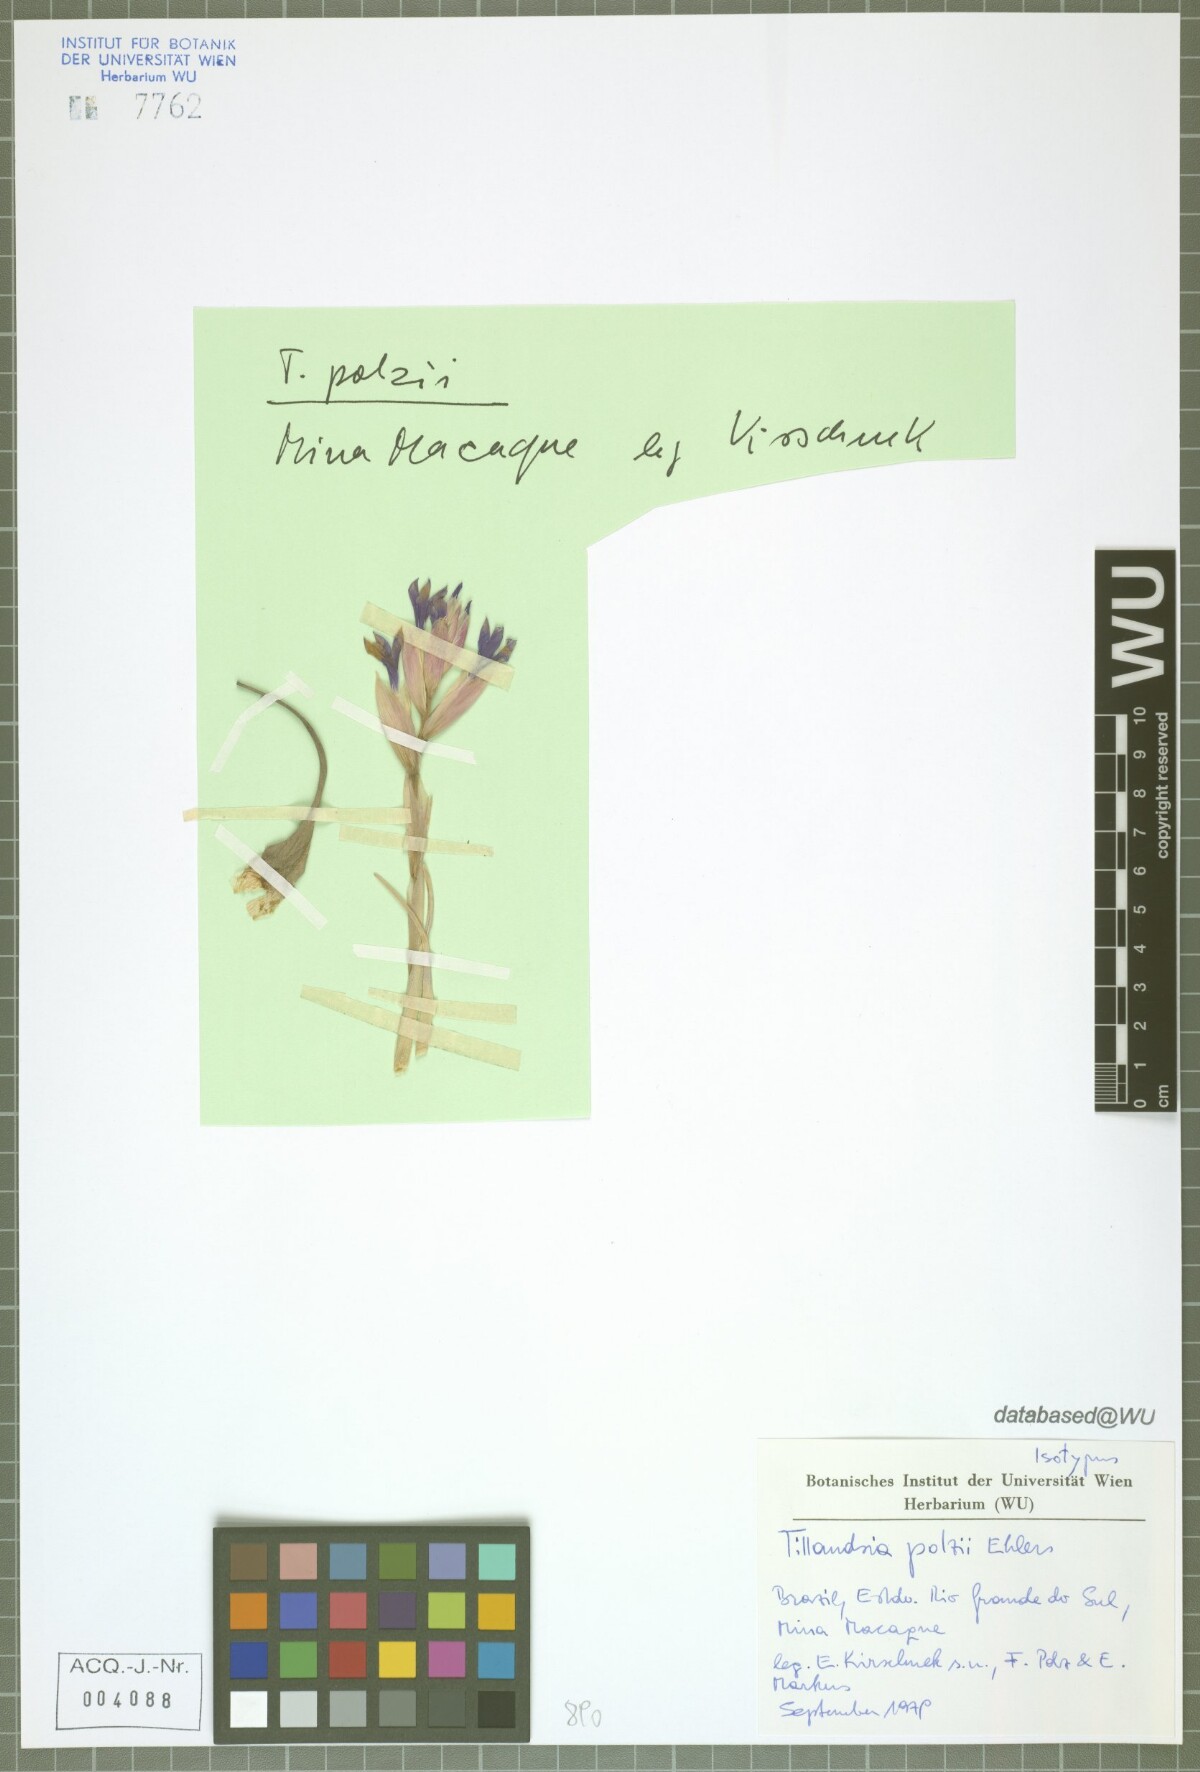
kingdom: Plantae
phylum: Tracheophyta
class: Liliopsida
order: Poales
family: Bromeliaceae
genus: Tillandsia
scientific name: Tillandsia polzii
